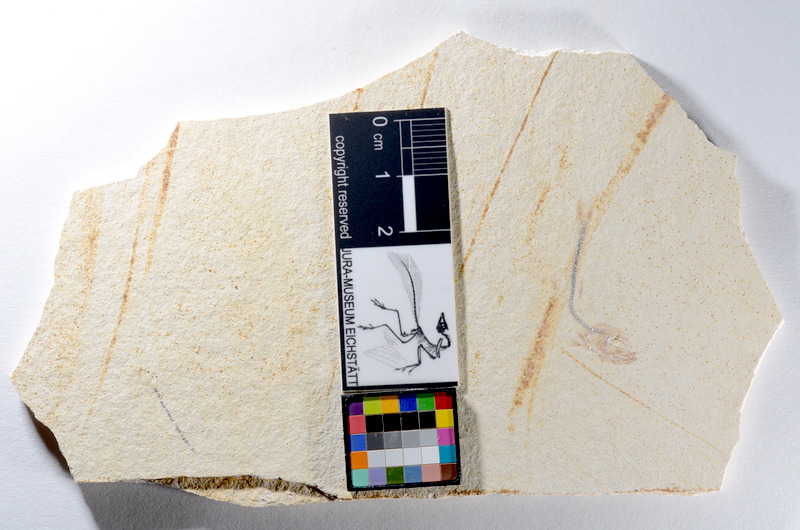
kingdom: Animalia
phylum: Chordata
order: Salmoniformes
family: Orthogonikleithridae
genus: Orthogonikleithrus
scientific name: Orthogonikleithrus hoelli
